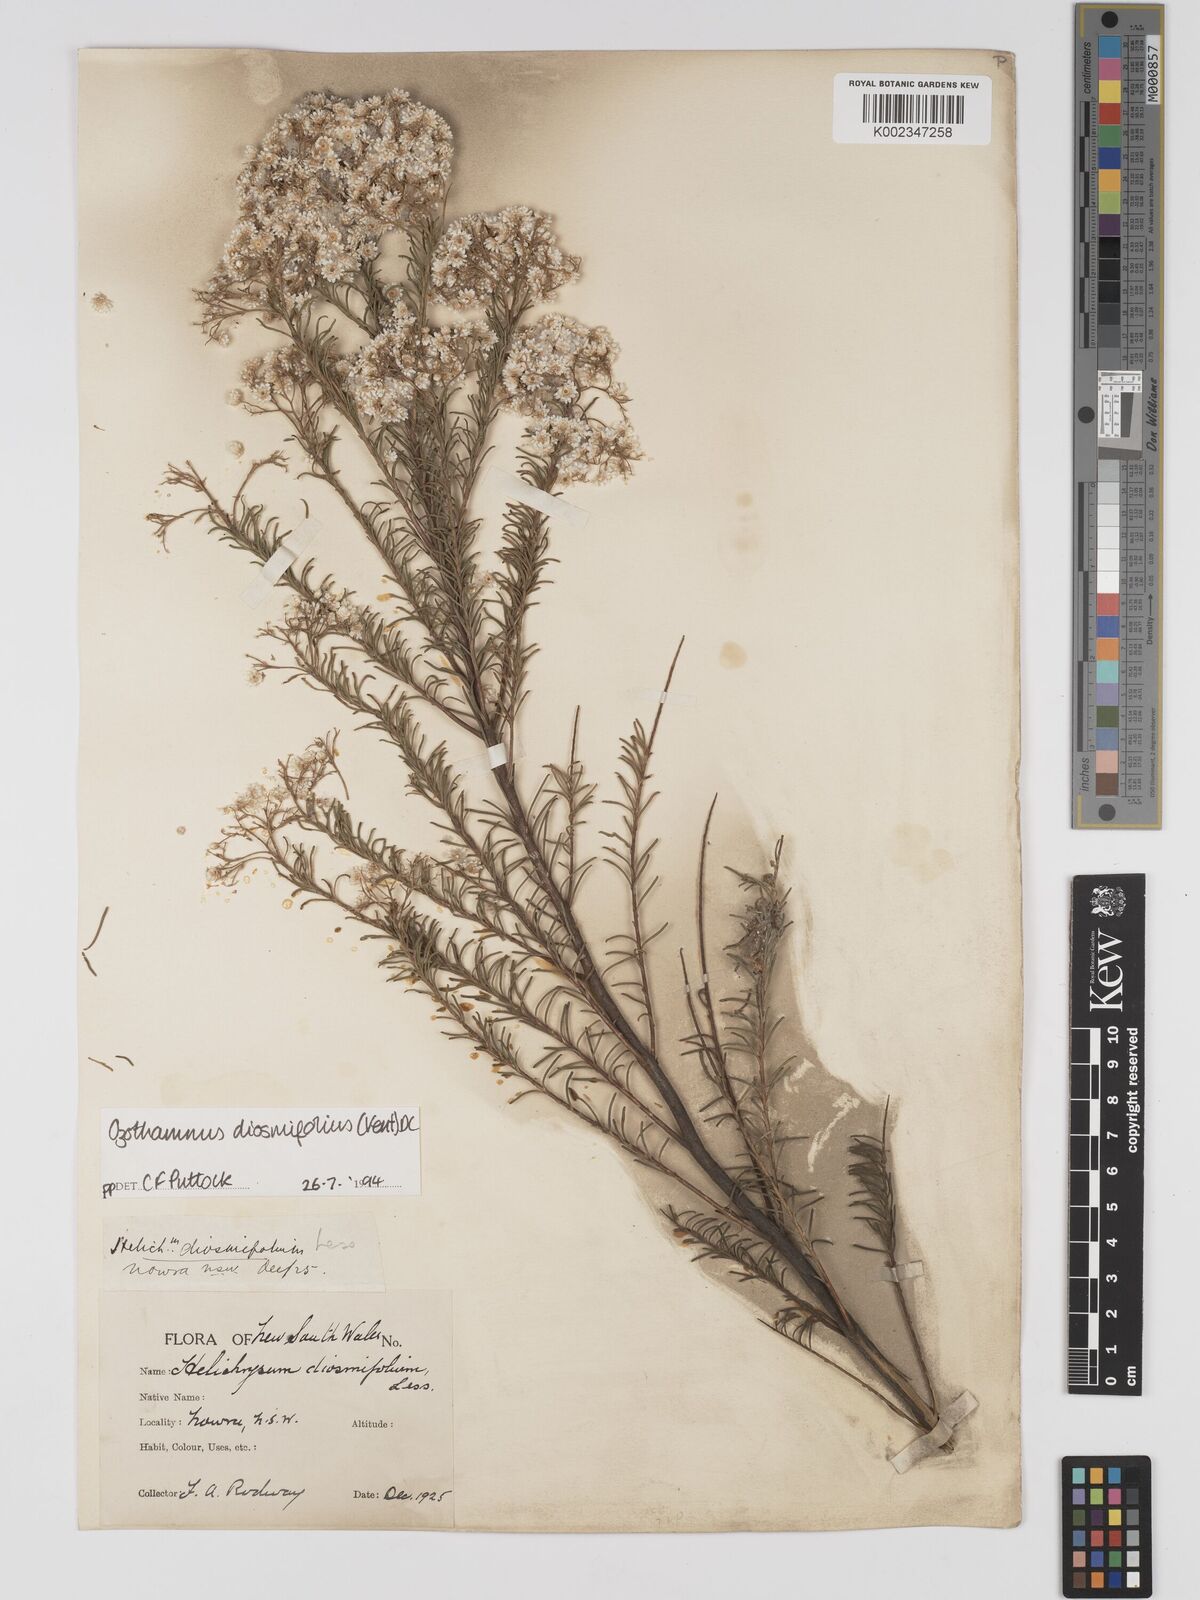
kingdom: Plantae
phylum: Tracheophyta
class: Magnoliopsida
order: Asterales
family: Asteraceae
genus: Ozothamnus
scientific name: Ozothamnus diosmifolius
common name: White-dogwood
